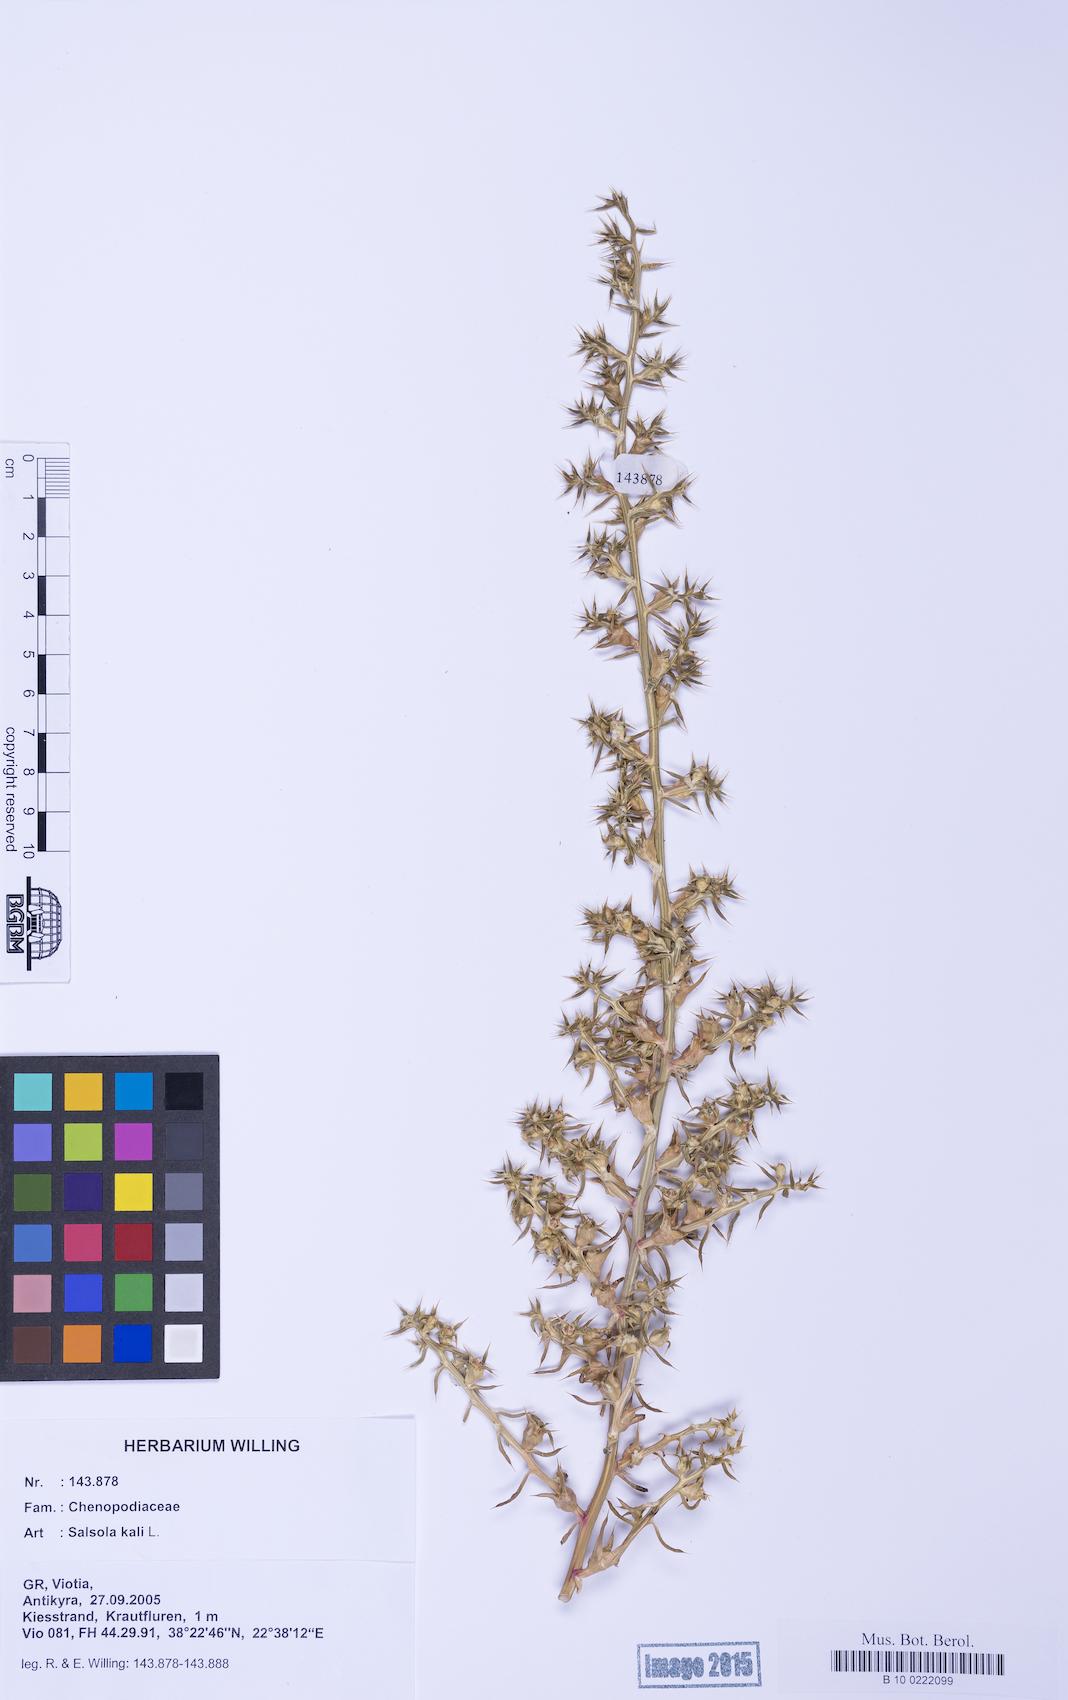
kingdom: Plantae
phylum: Tracheophyta
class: Magnoliopsida
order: Caryophyllales
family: Amaranthaceae
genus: Salsola
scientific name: Salsola kali
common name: Saltwort
